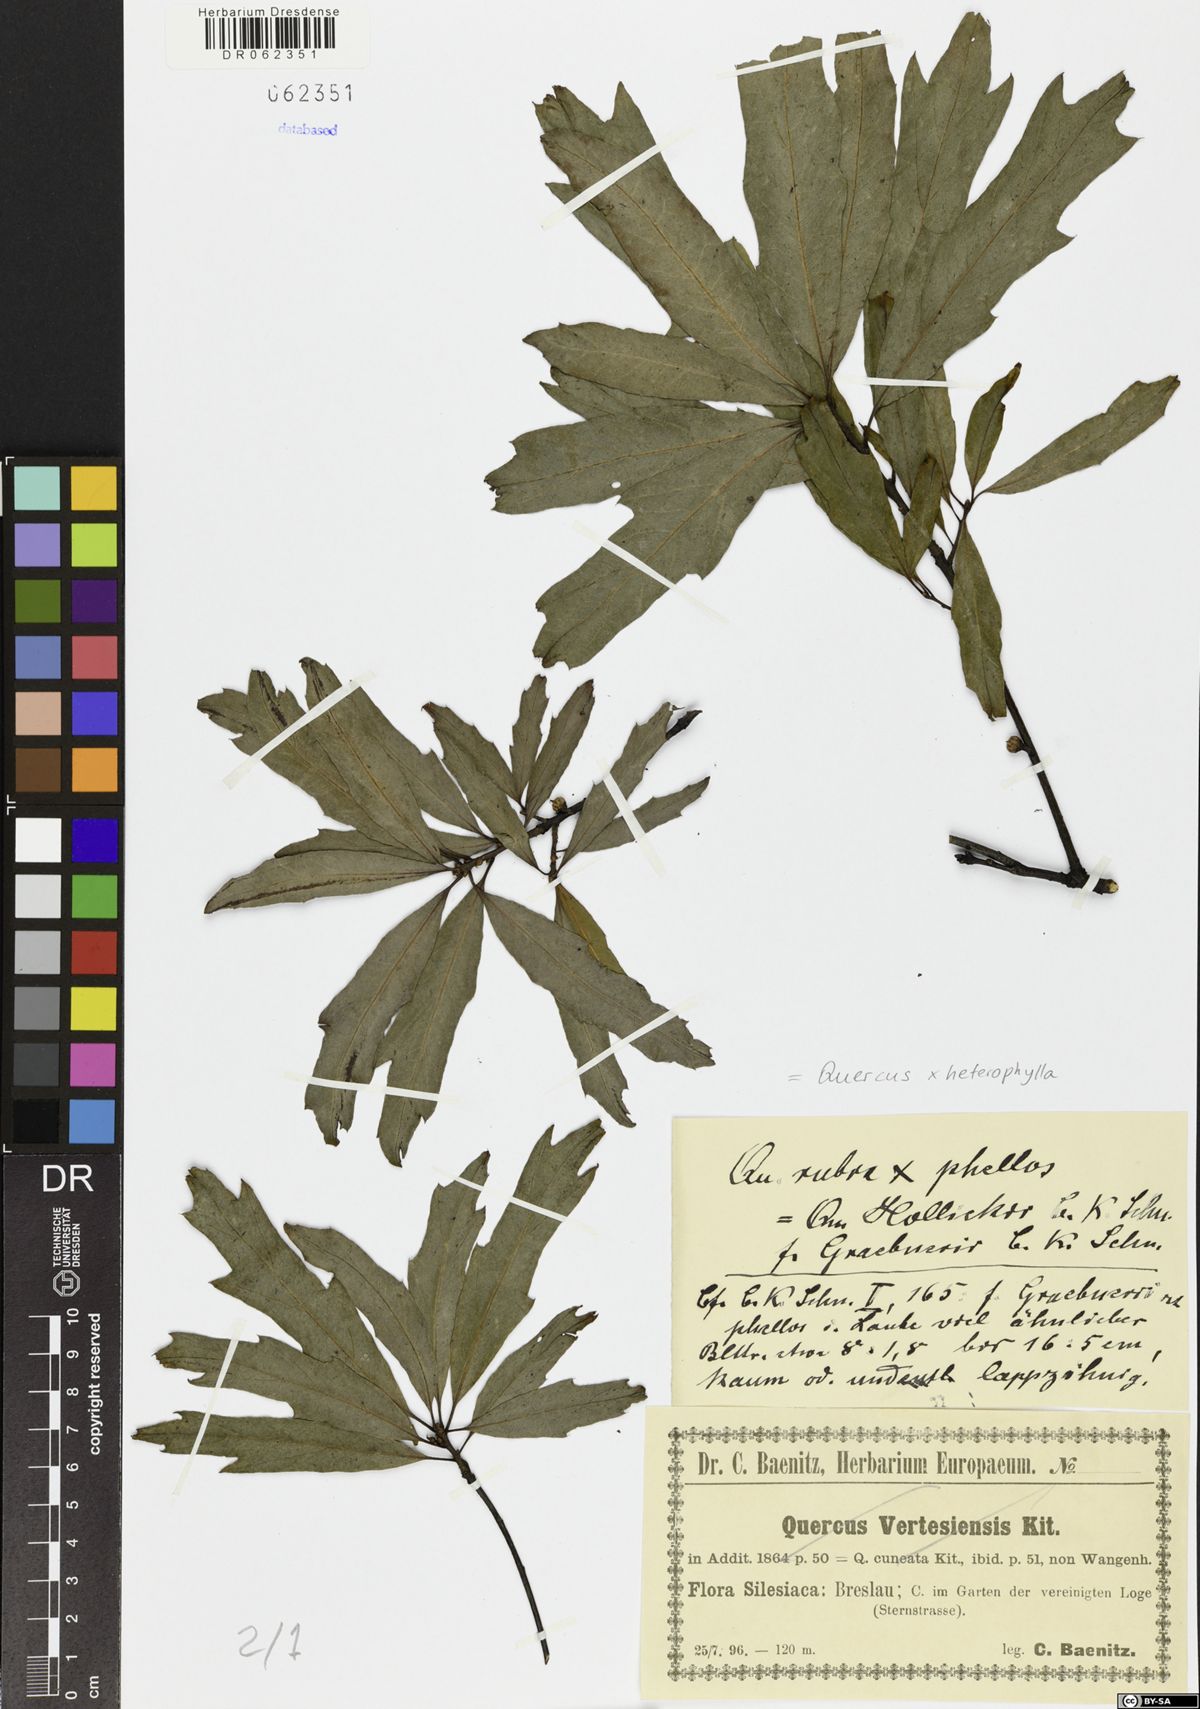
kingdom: Plantae
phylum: Tracheophyta
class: Magnoliopsida
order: Fagales
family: Fagaceae
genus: Quercus
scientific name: Quercus heterophylla
